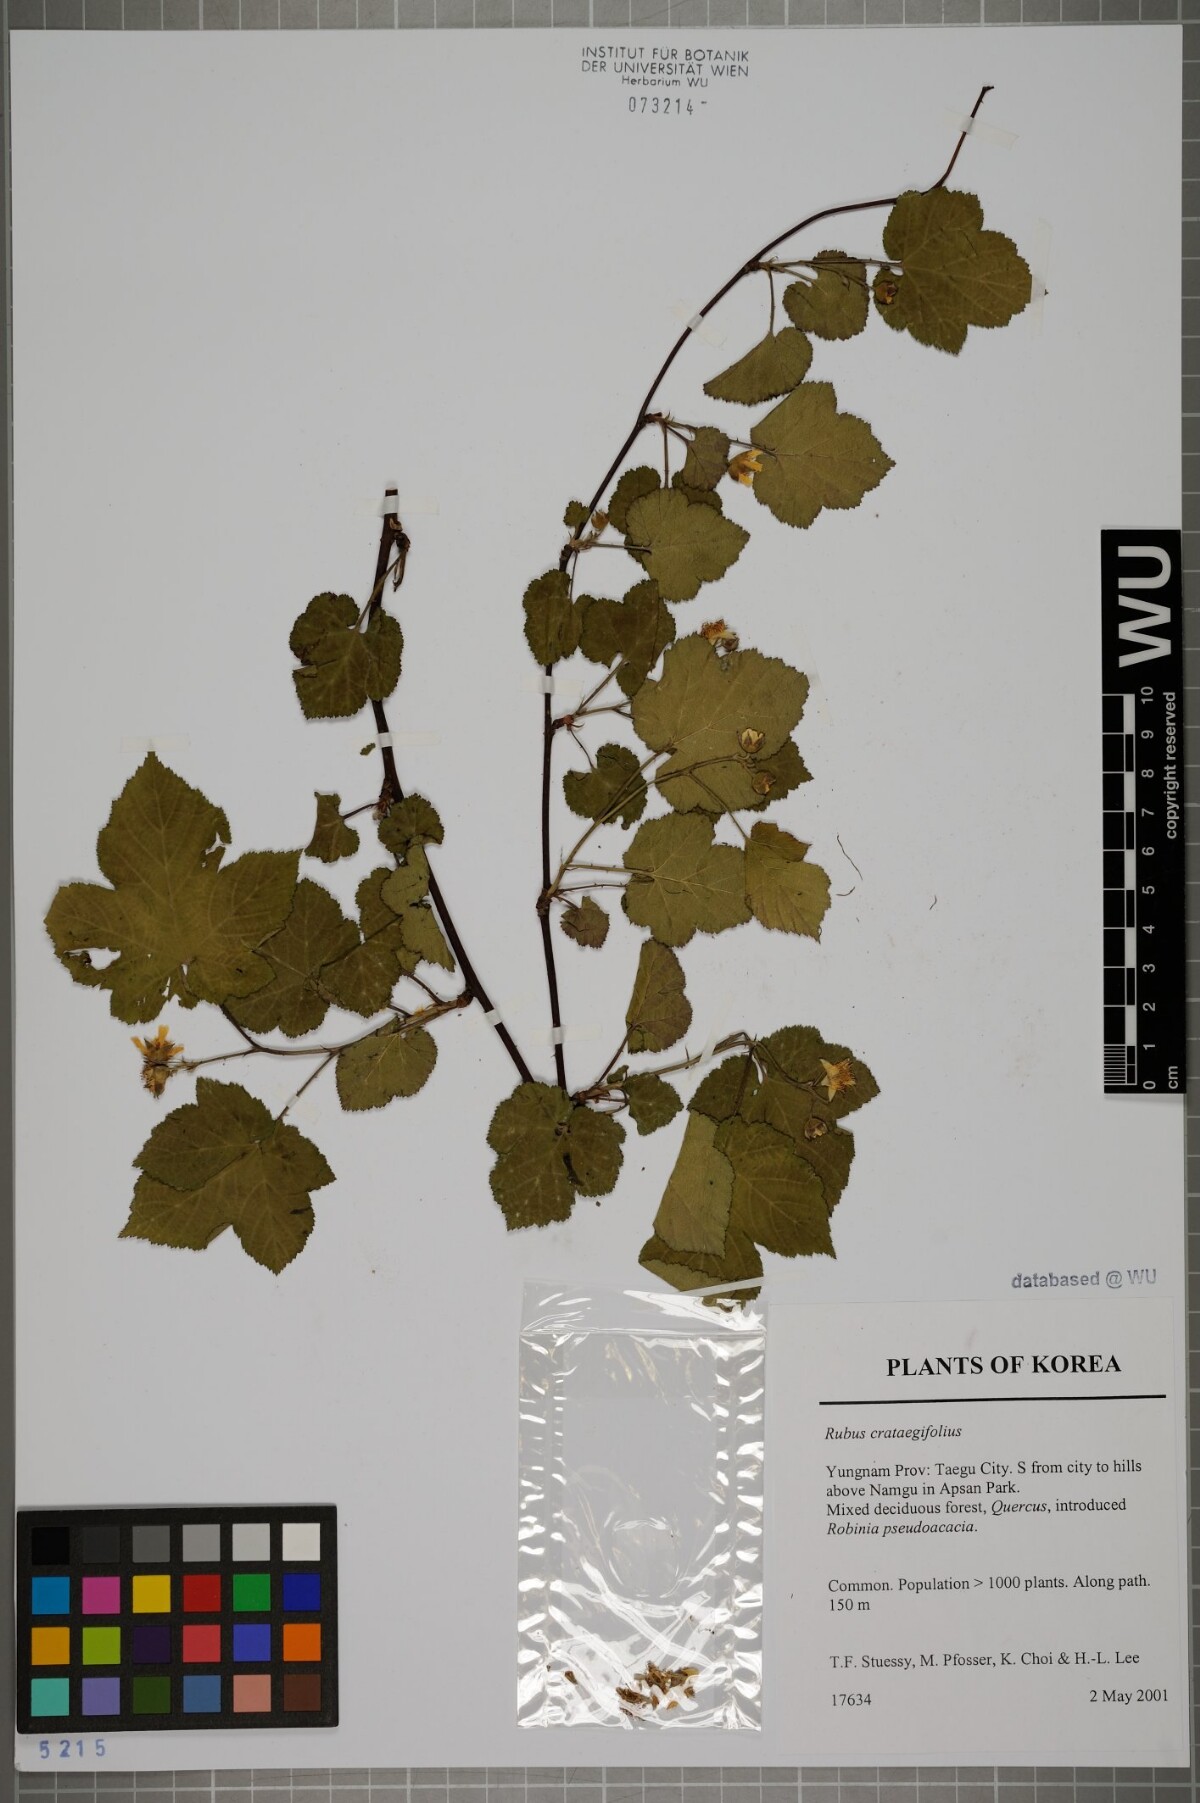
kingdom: Plantae
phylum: Tracheophyta
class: Magnoliopsida
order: Rosales
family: Rosaceae
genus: Rubus
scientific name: Rubus crataegifolius
